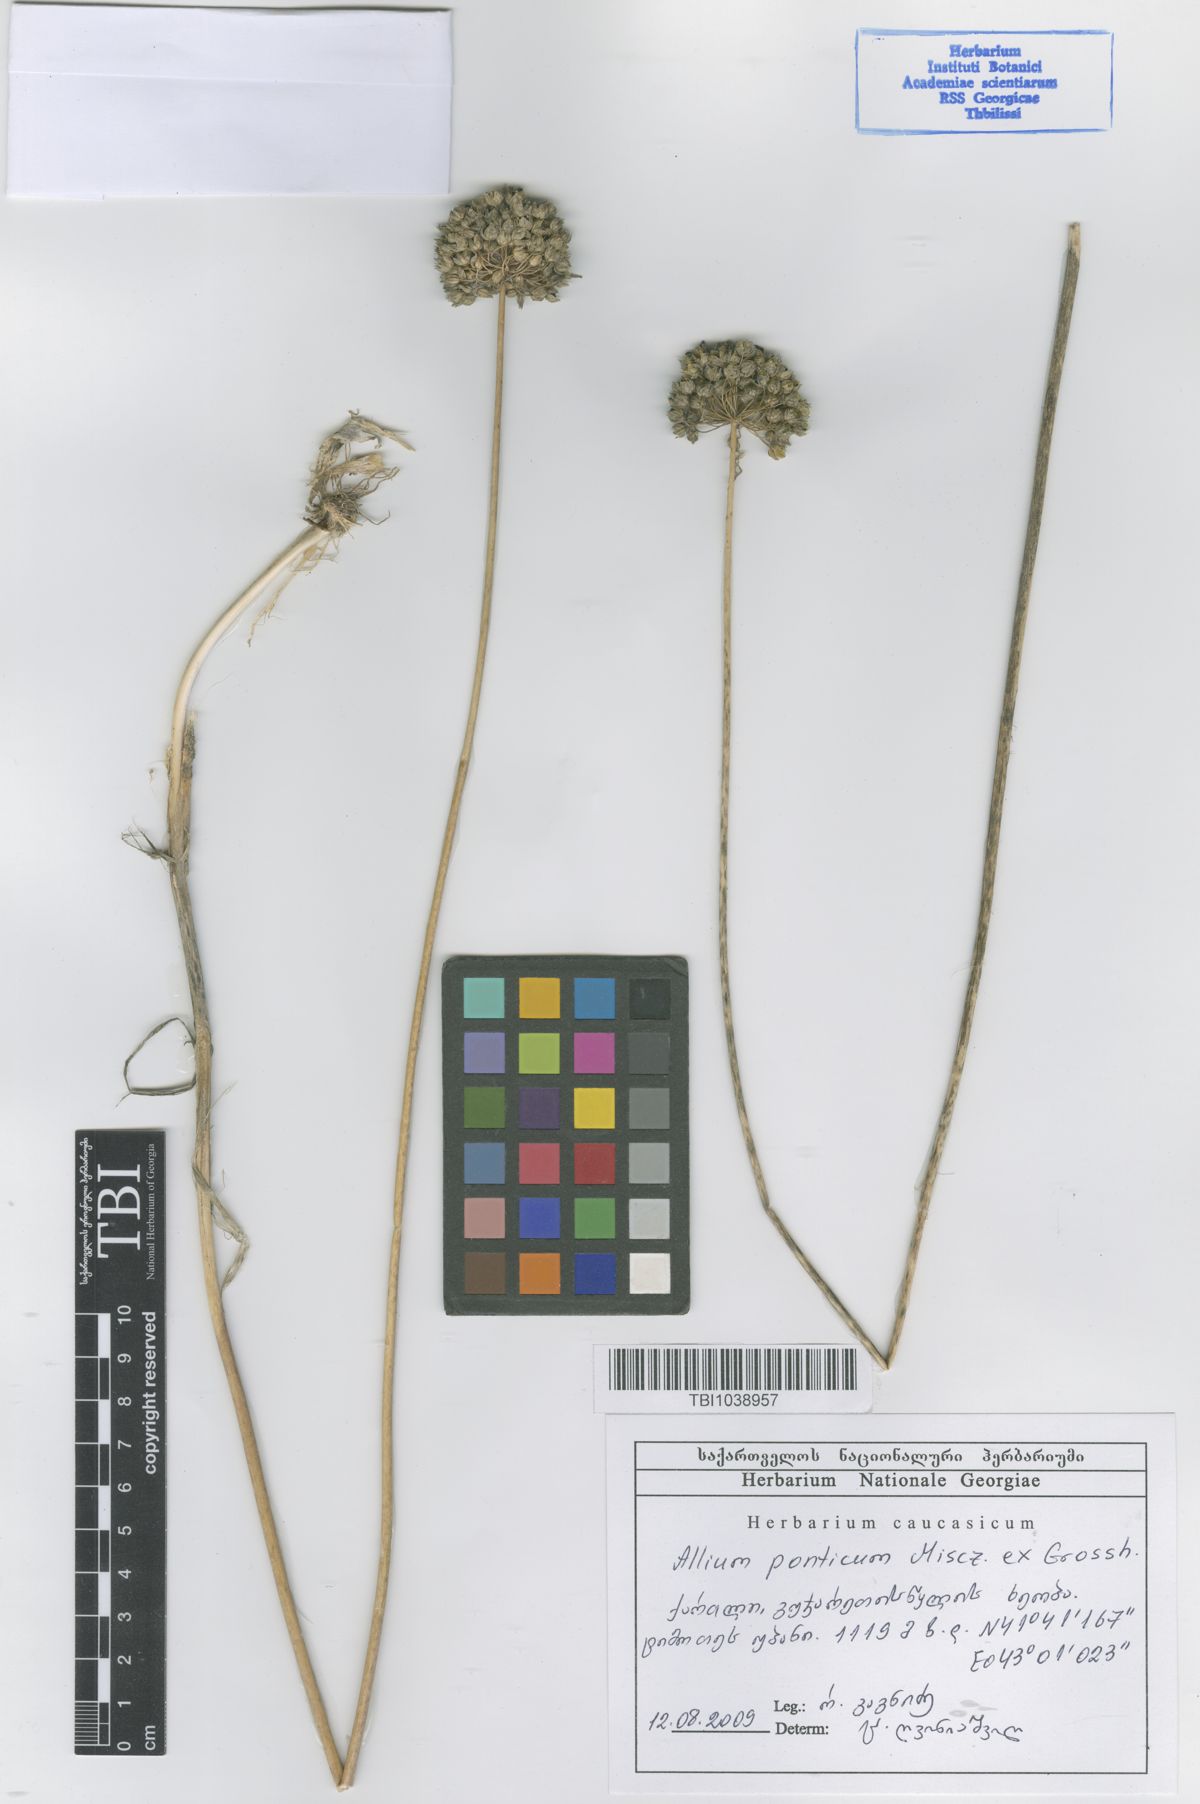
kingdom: Plantae
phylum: Tracheophyta
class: Liliopsida
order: Asparagales
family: Amaryllidaceae
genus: Allium
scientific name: Allium ponticum
